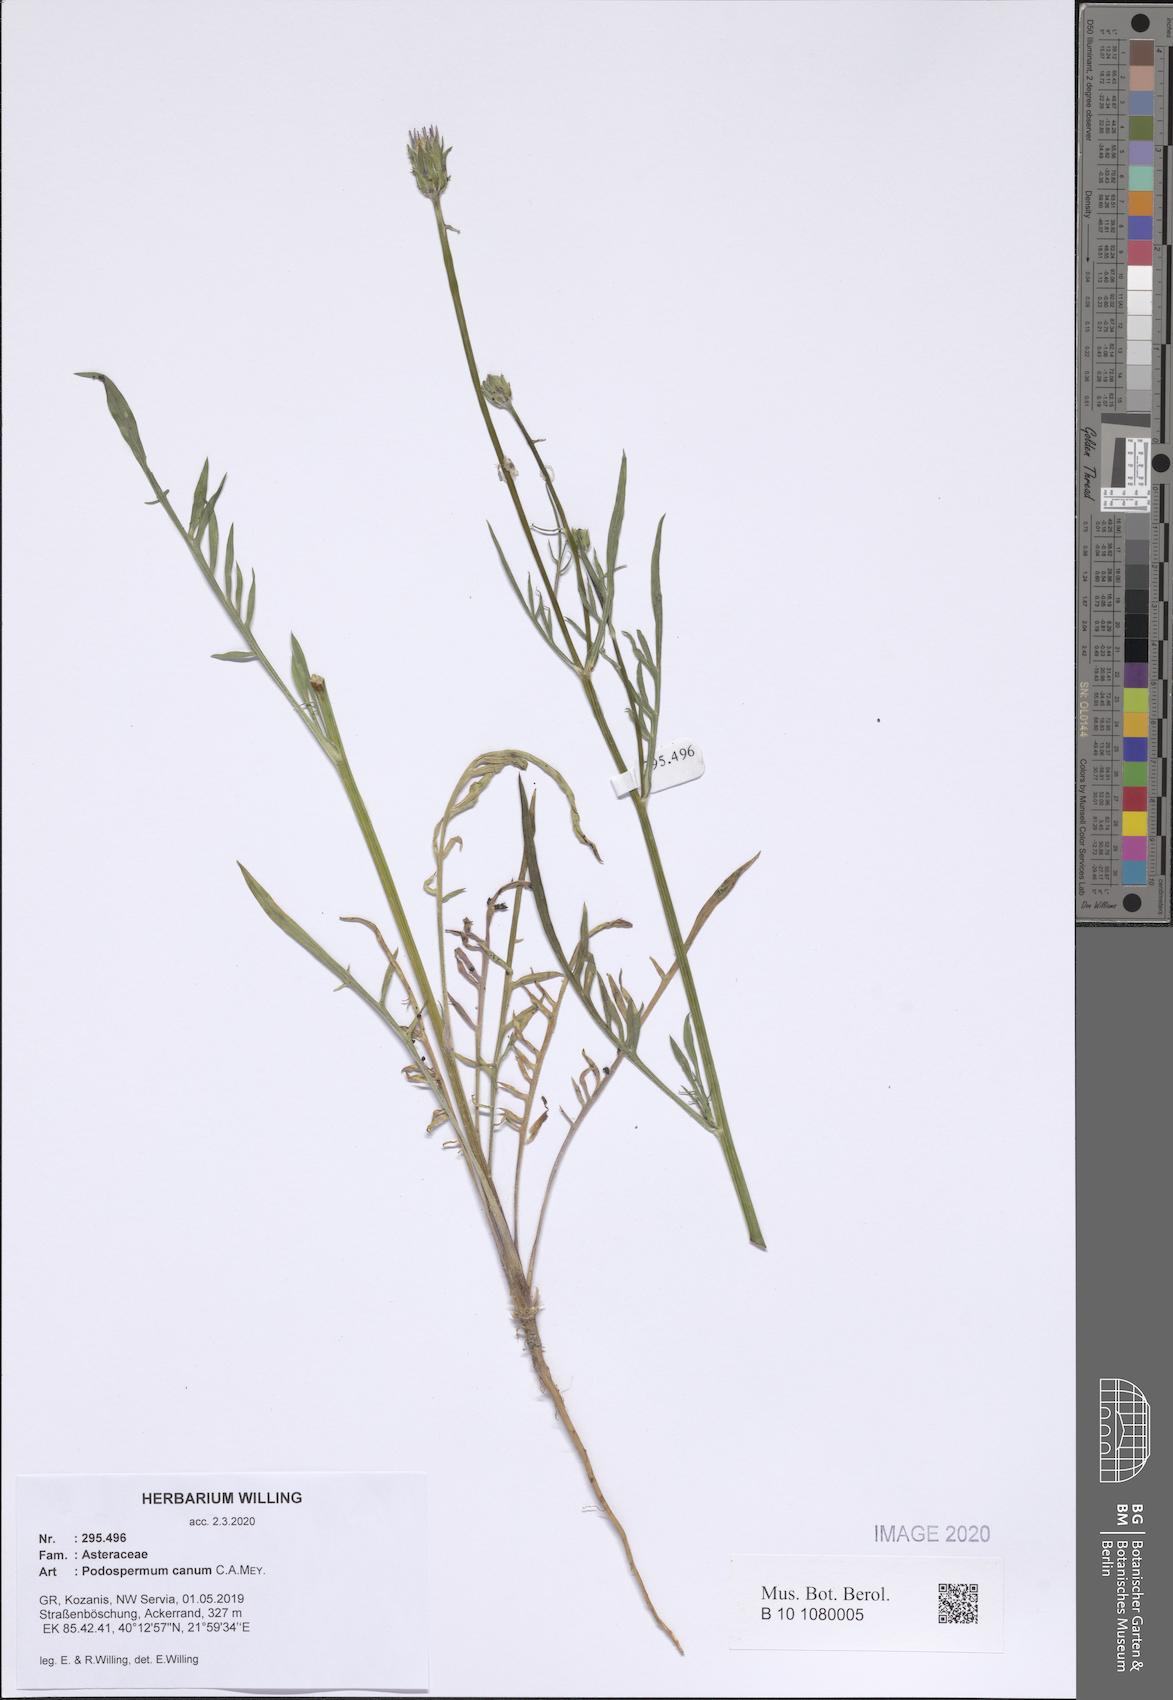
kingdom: Plantae
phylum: Tracheophyta
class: Magnoliopsida
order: Asterales
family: Asteraceae
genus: Scorzonera
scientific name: Scorzonera cana
